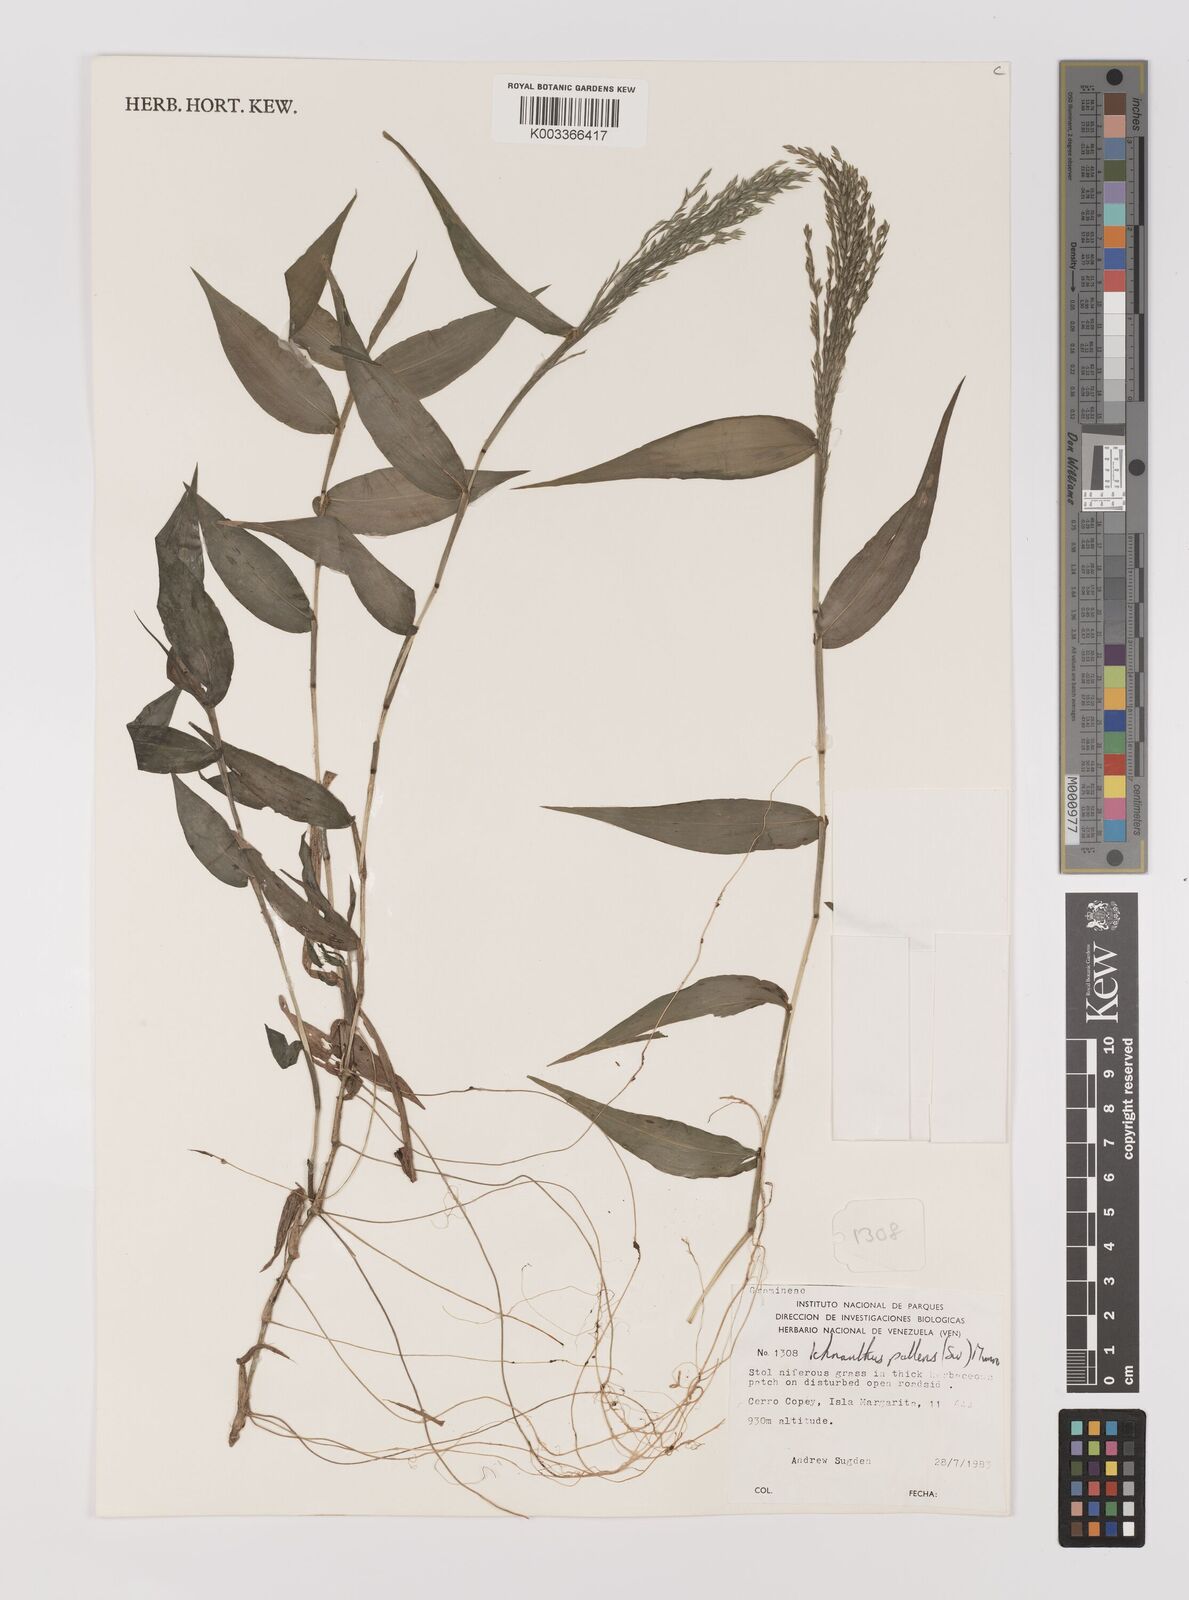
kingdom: Plantae
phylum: Tracheophyta
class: Liliopsida
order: Poales
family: Poaceae
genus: Ichnanthus
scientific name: Ichnanthus pallens
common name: Water grass
